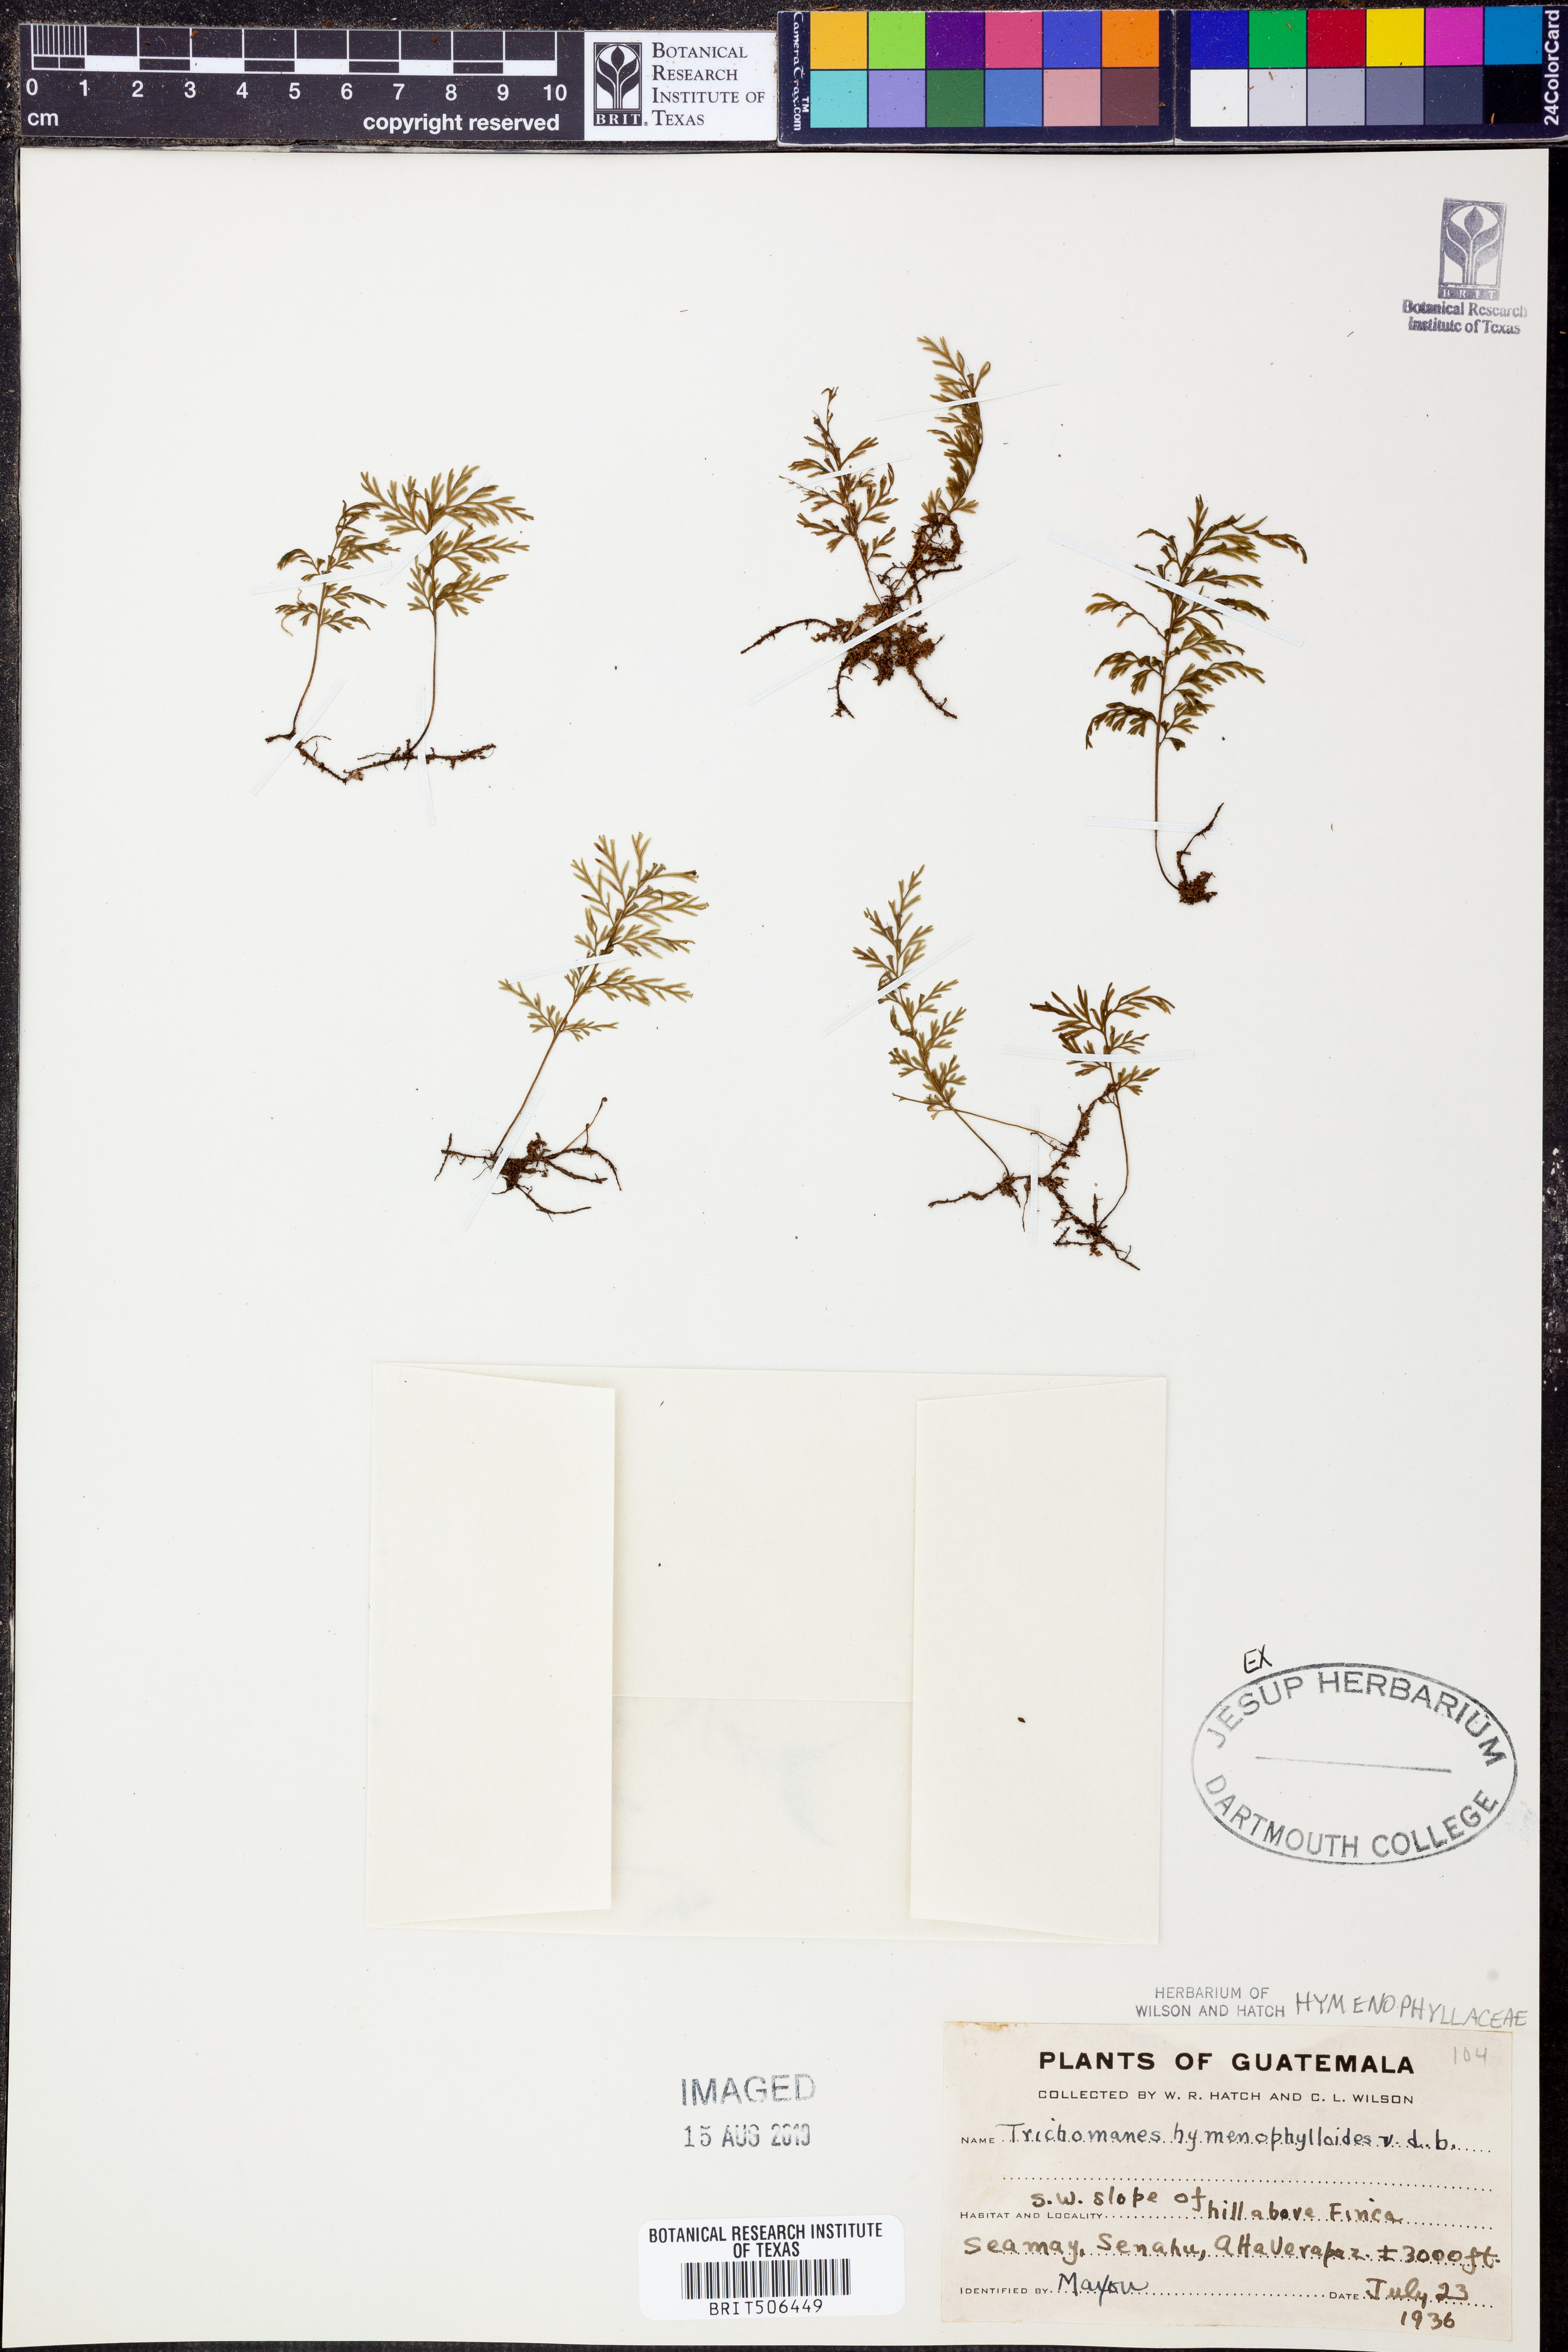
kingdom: Plantae
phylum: Tracheophyta
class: Polypodiopsida
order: Hymenophyllales
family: Hymenophyllaceae
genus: Polyphlebium
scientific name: Polyphlebium hymenophylloides
